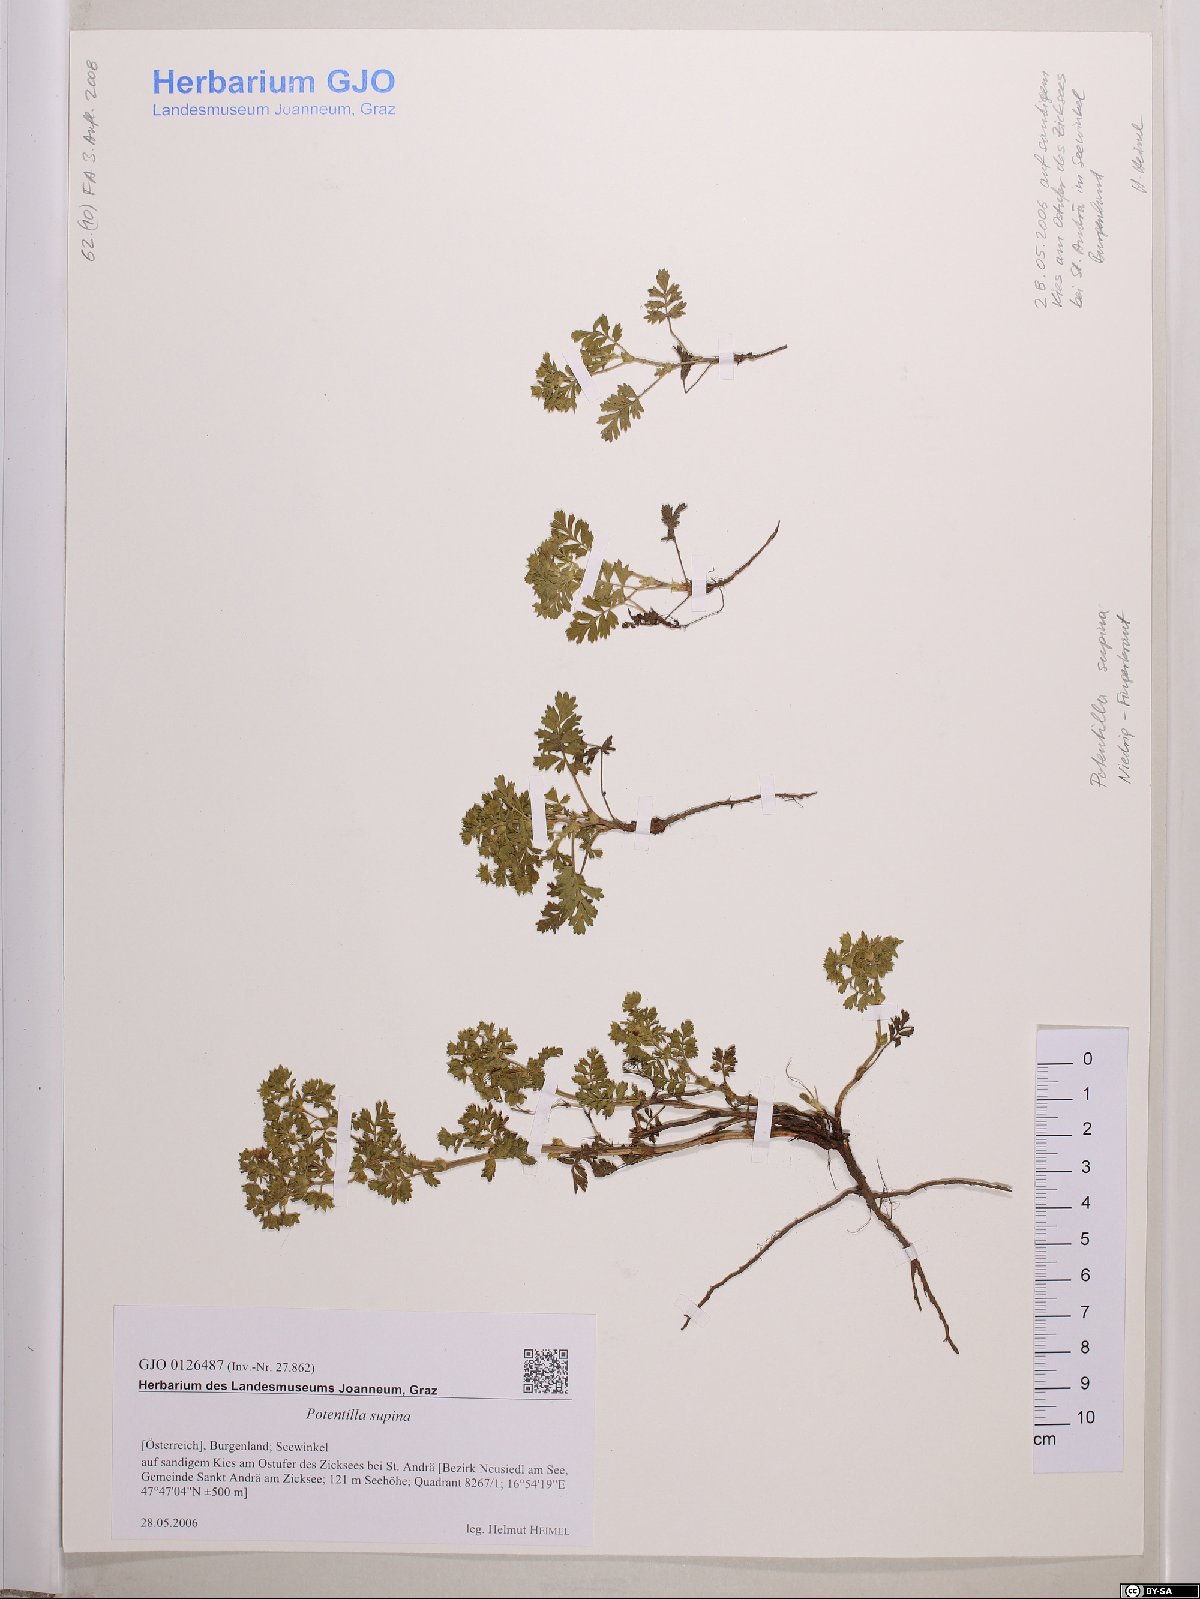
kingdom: Plantae
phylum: Tracheophyta
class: Magnoliopsida
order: Rosales
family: Rosaceae
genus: Potentilla
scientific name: Potentilla supina
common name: Prostrate cinquefoil
